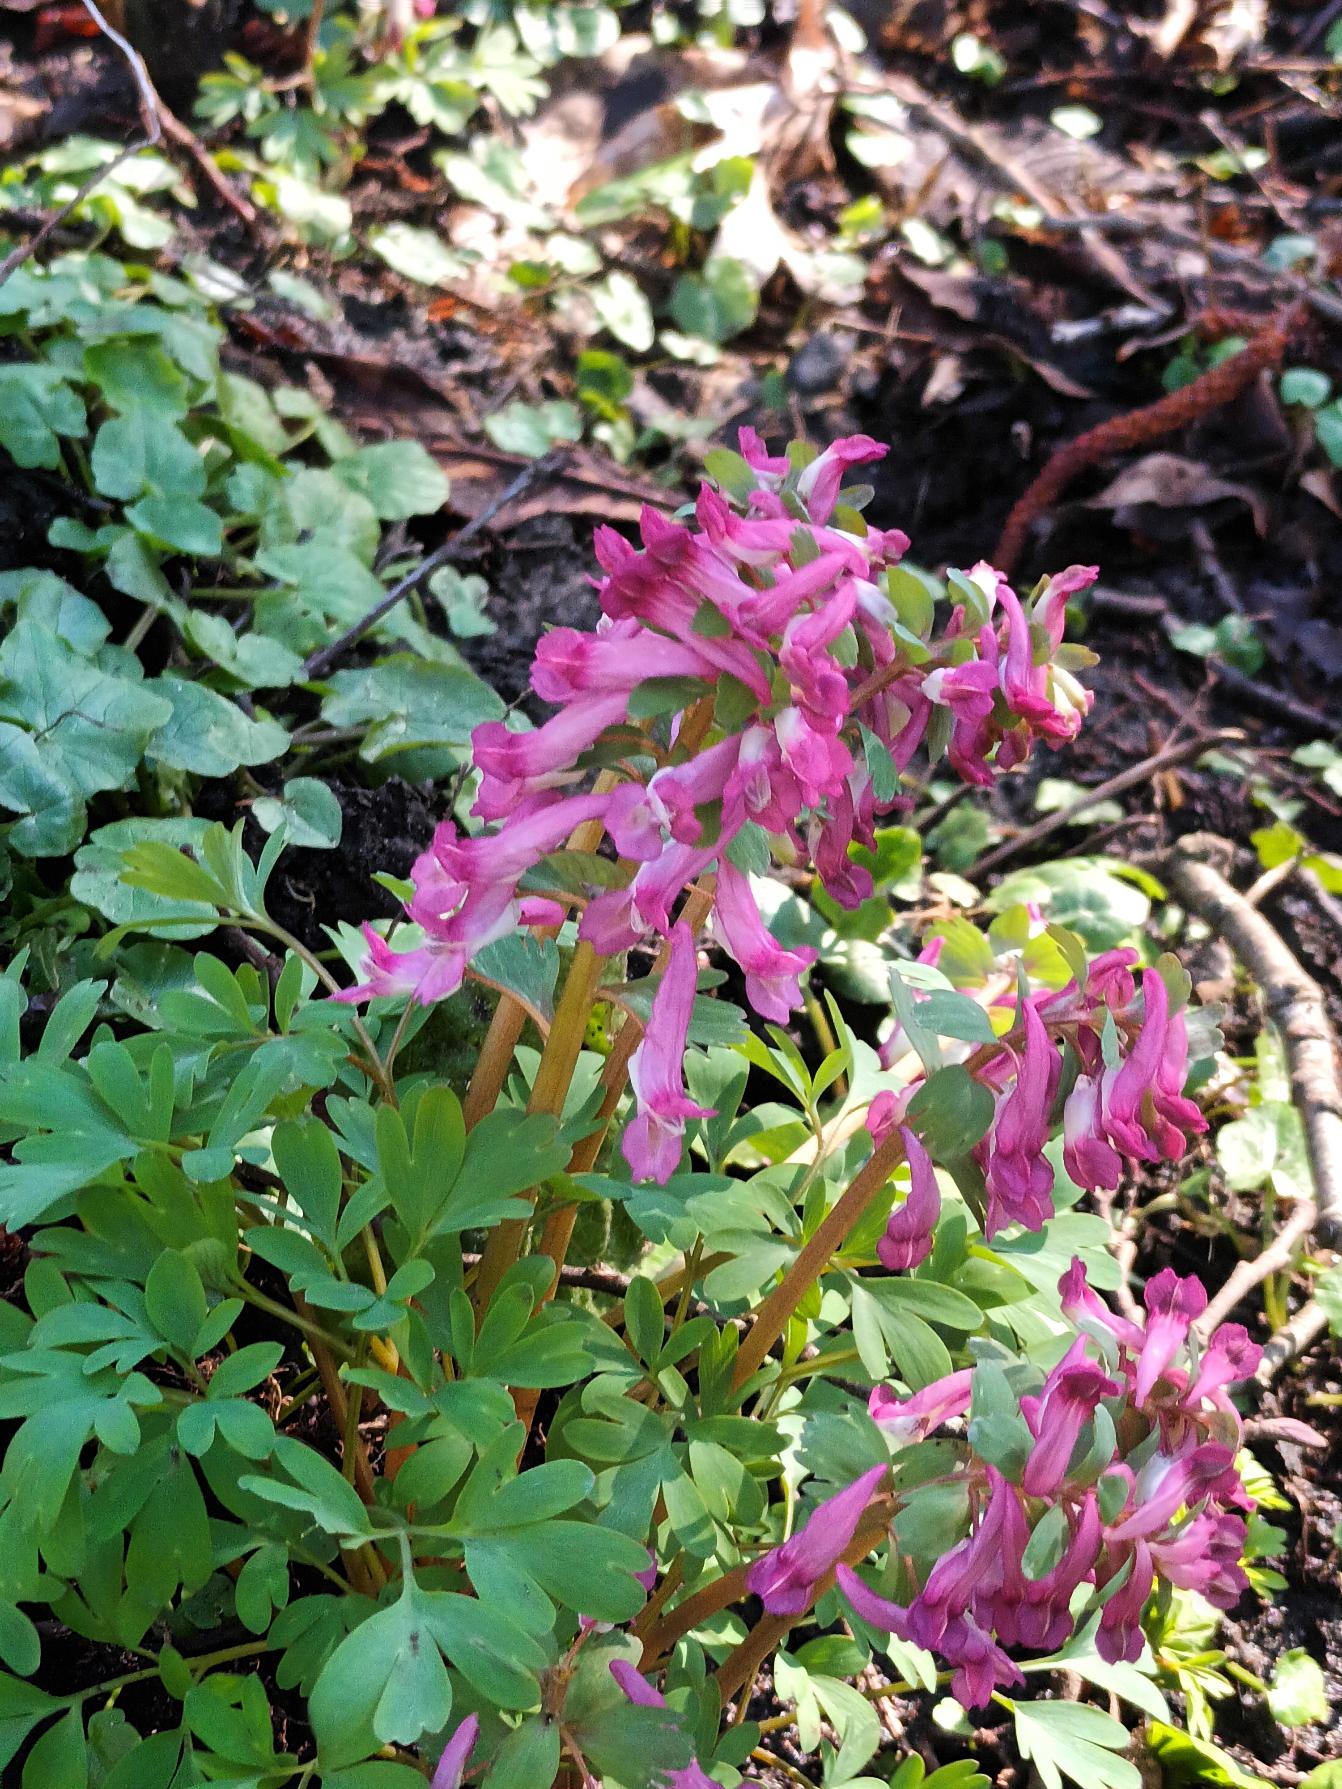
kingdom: Plantae
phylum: Tracheophyta
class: Magnoliopsida
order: Ranunculales
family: Papaveraceae
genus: Corydalis
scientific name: Corydalis solida
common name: Langstilket lærkespore
